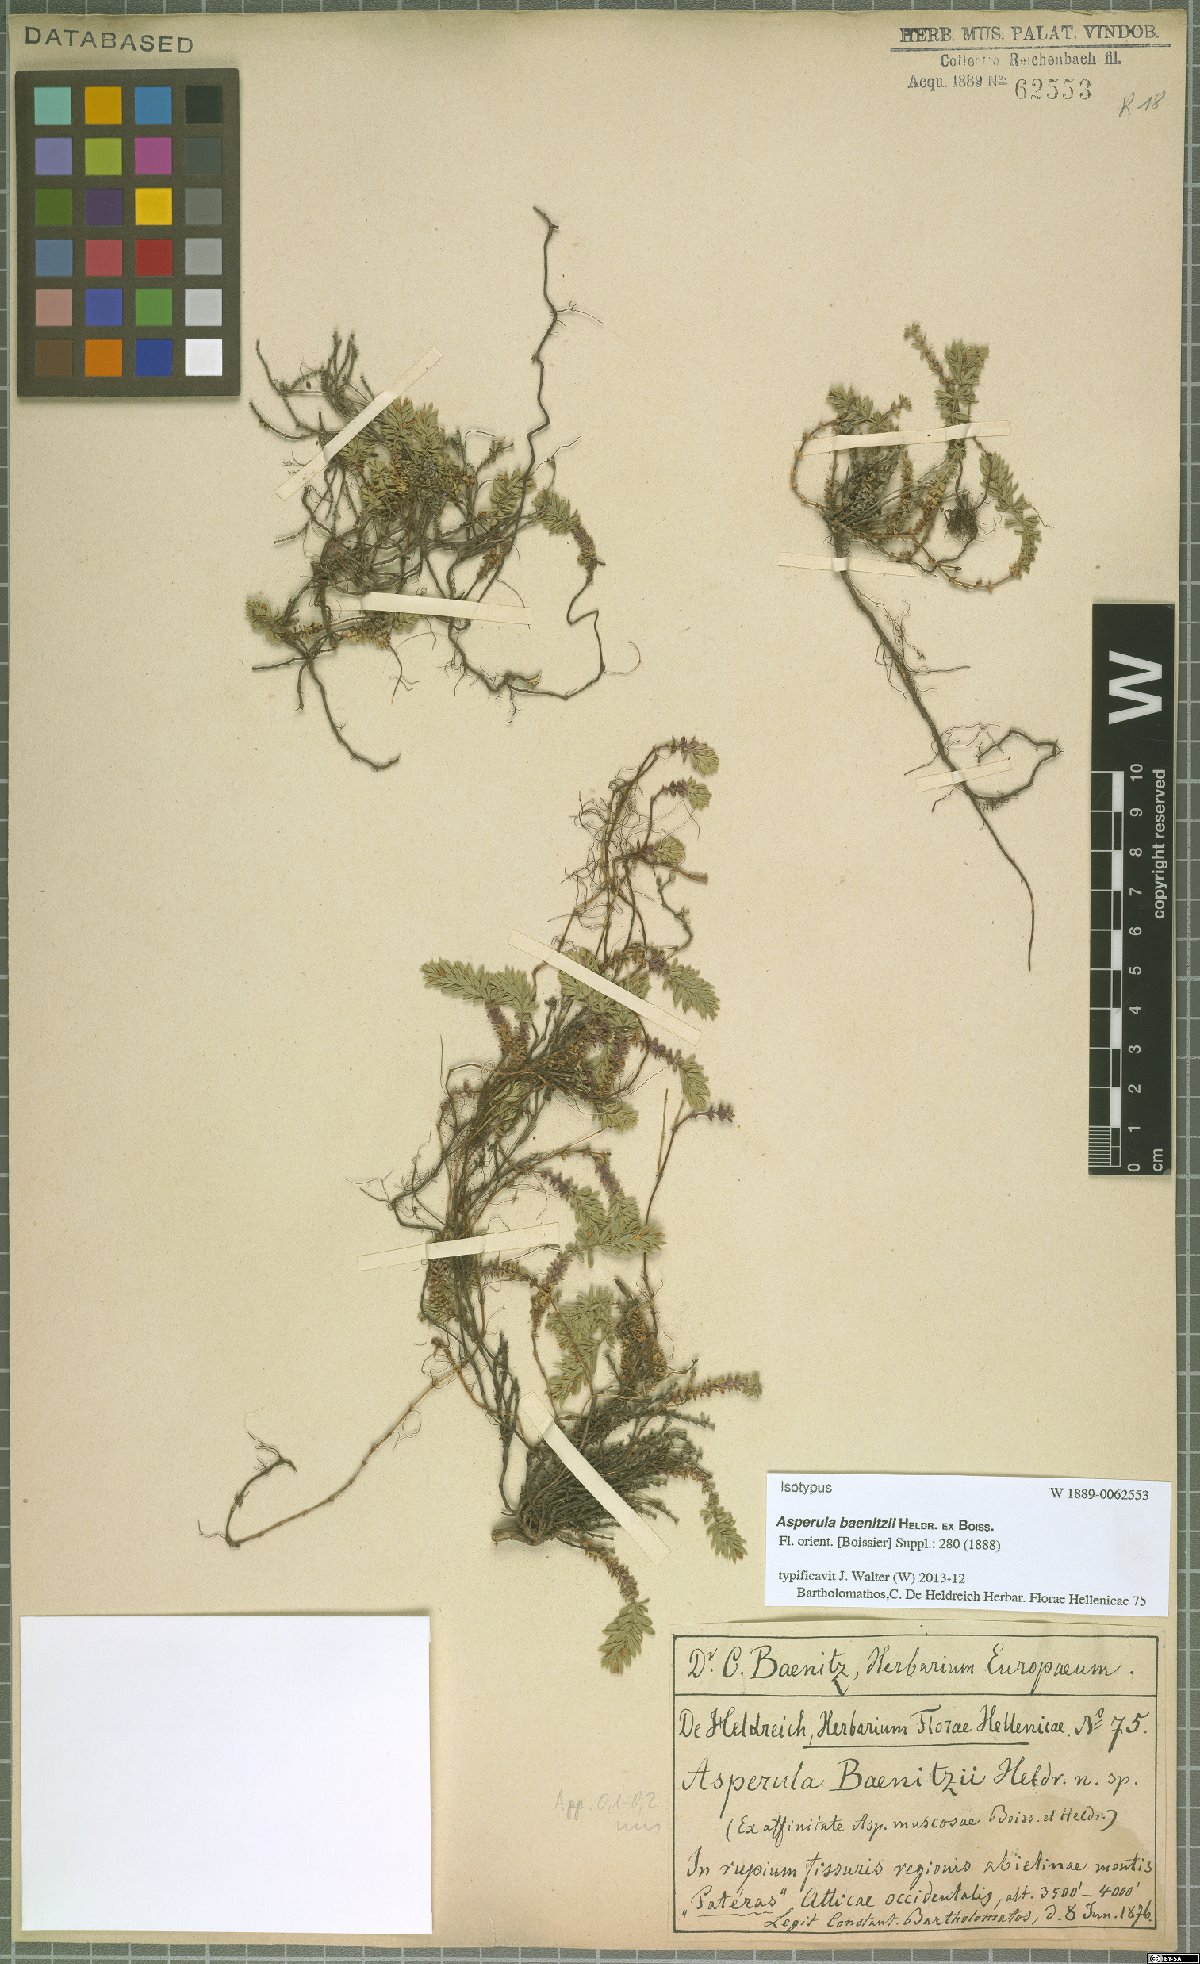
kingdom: Plantae
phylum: Tracheophyta
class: Magnoliopsida
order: Gentianales
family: Rubiaceae
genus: Thliphthisa
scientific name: Thliphthisa baenitzii
